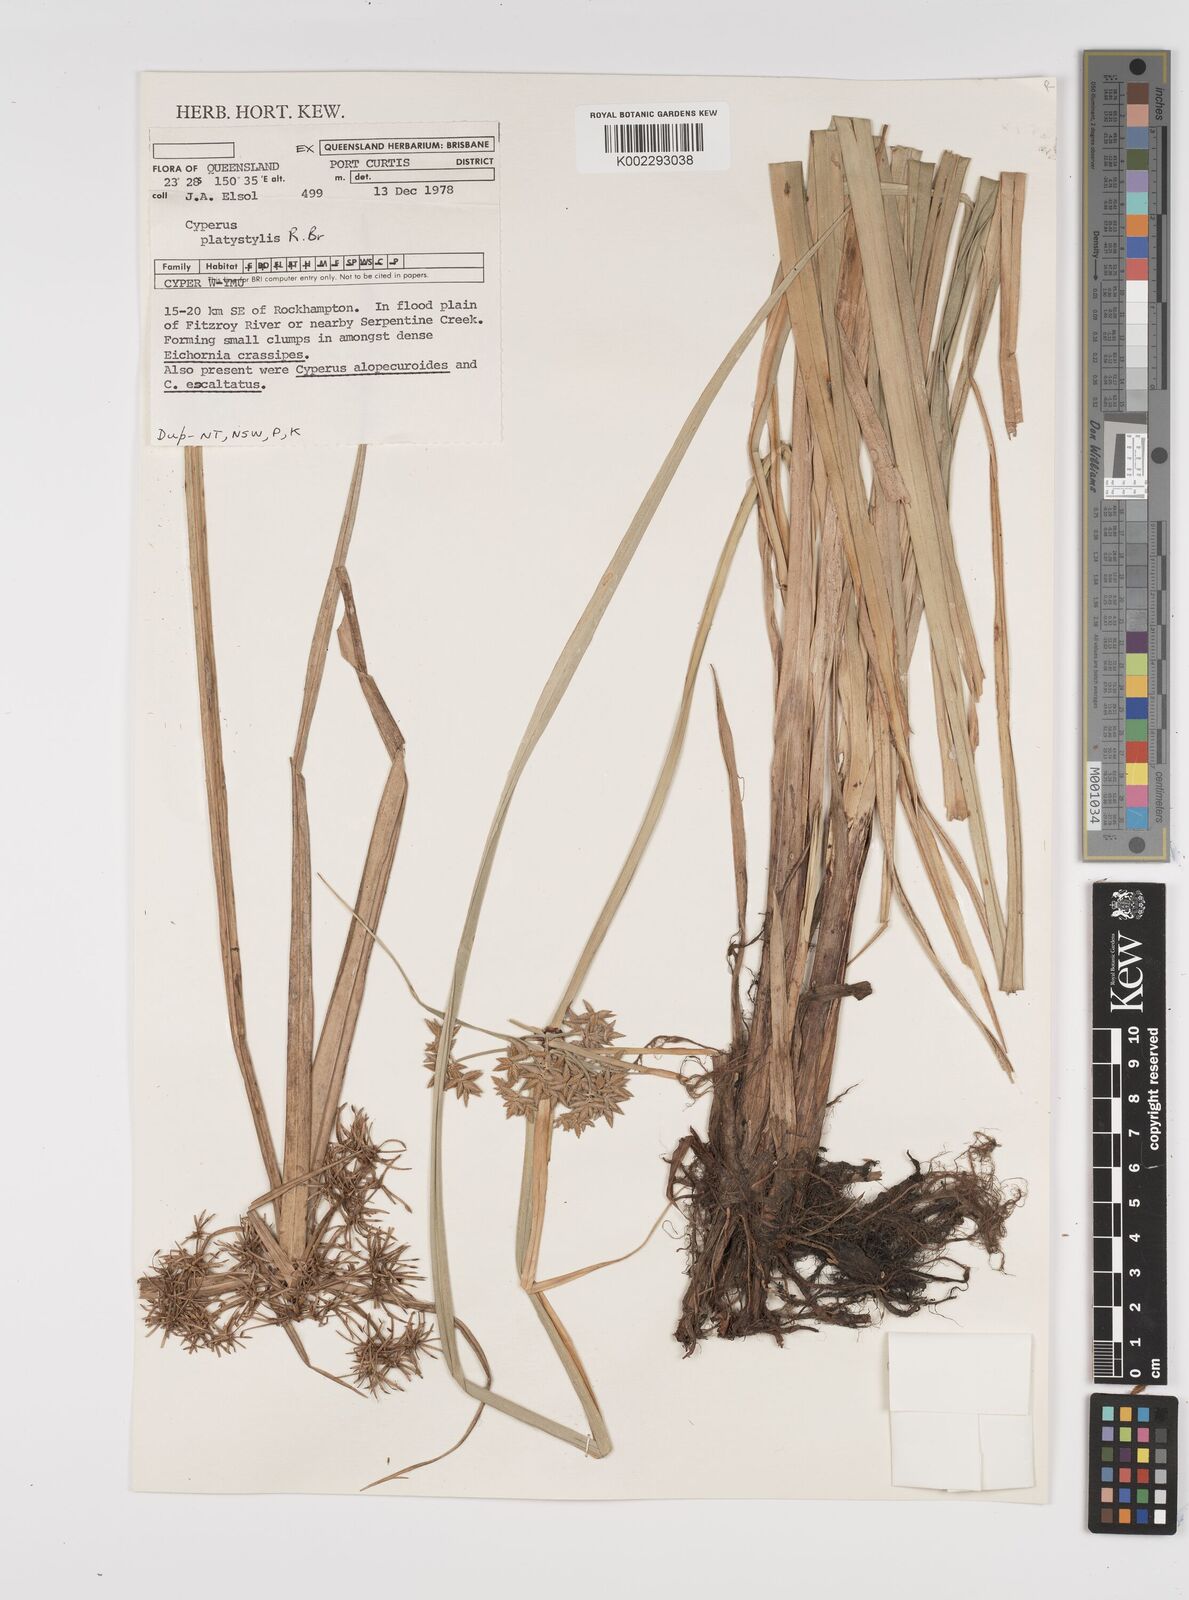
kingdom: Plantae
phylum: Tracheophyta
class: Liliopsida
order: Poales
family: Cyperaceae
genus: Cyperus
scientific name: Cyperus platystylis
